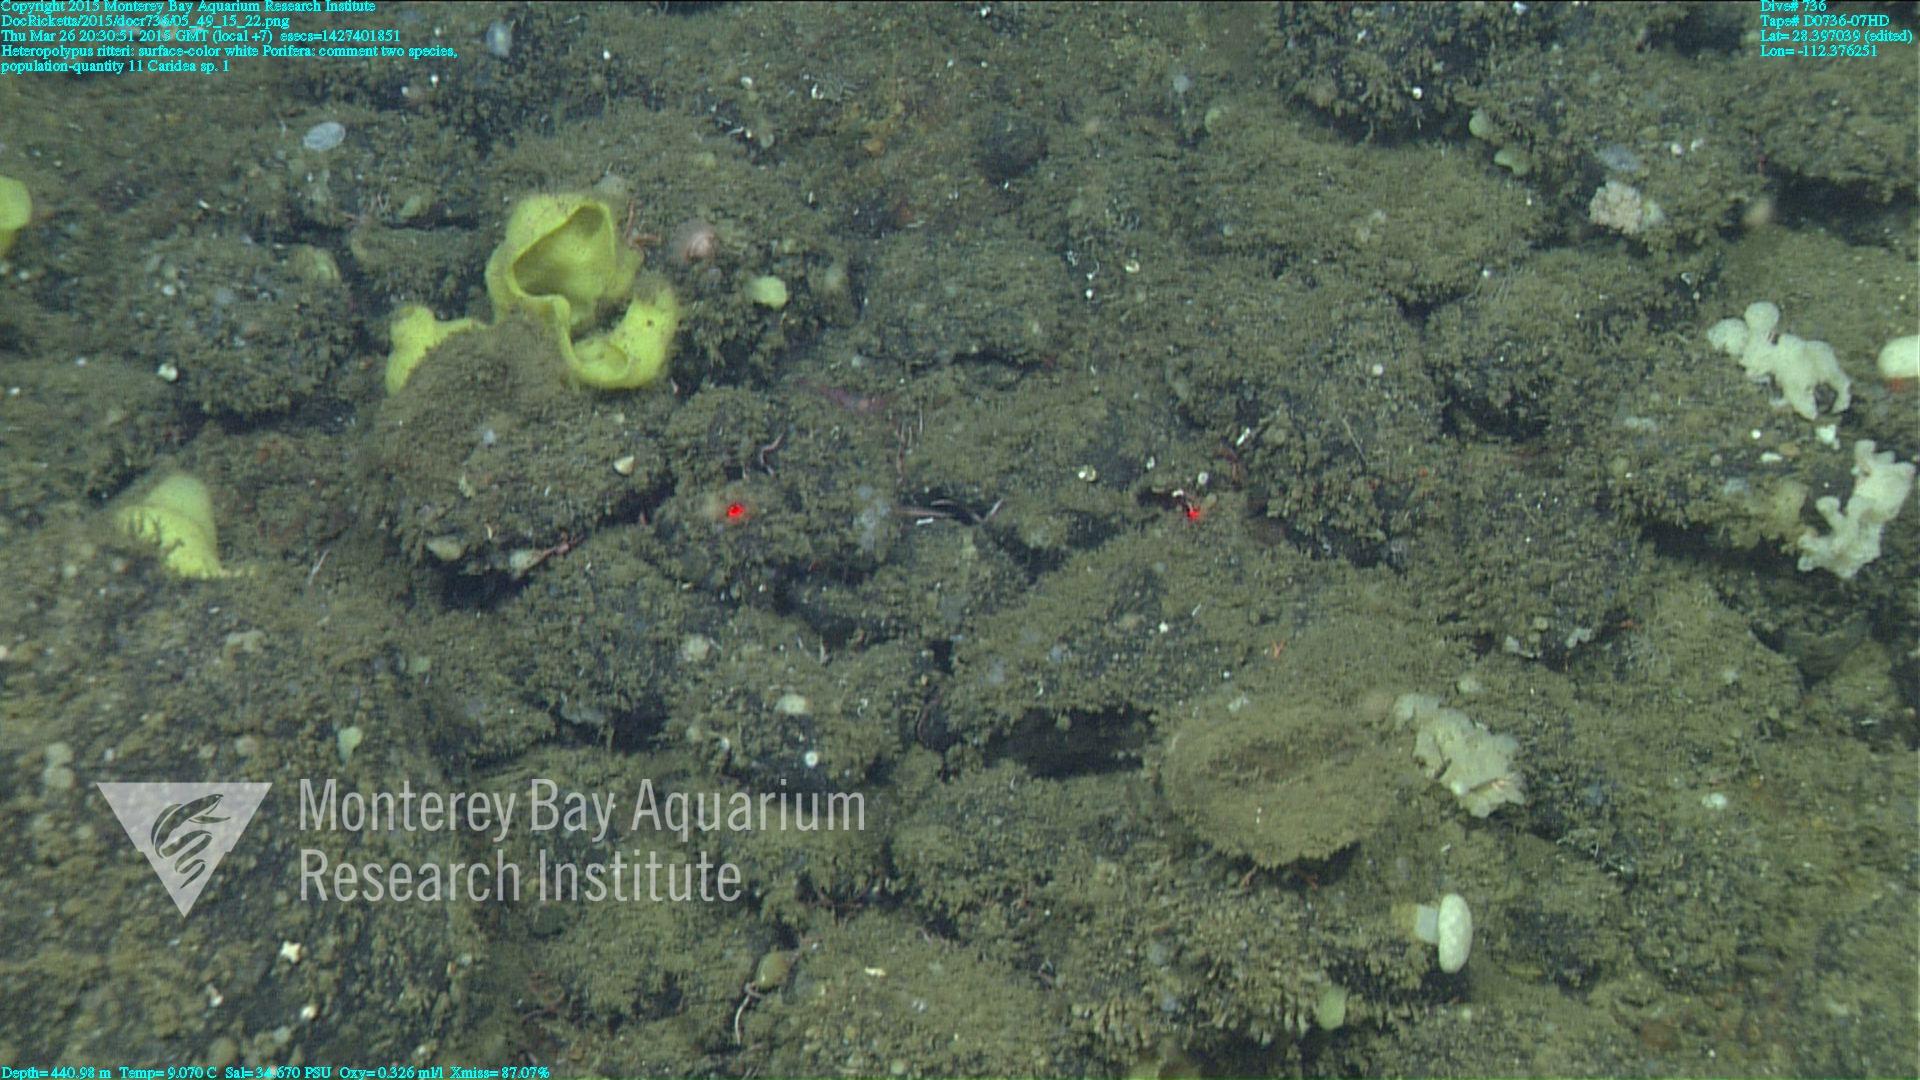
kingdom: Animalia
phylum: Cnidaria
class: Anthozoa
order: Scleralcyonacea
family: Coralliidae
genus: Heteropolypus
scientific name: Heteropolypus ritteri
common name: Ritter's soft coral
